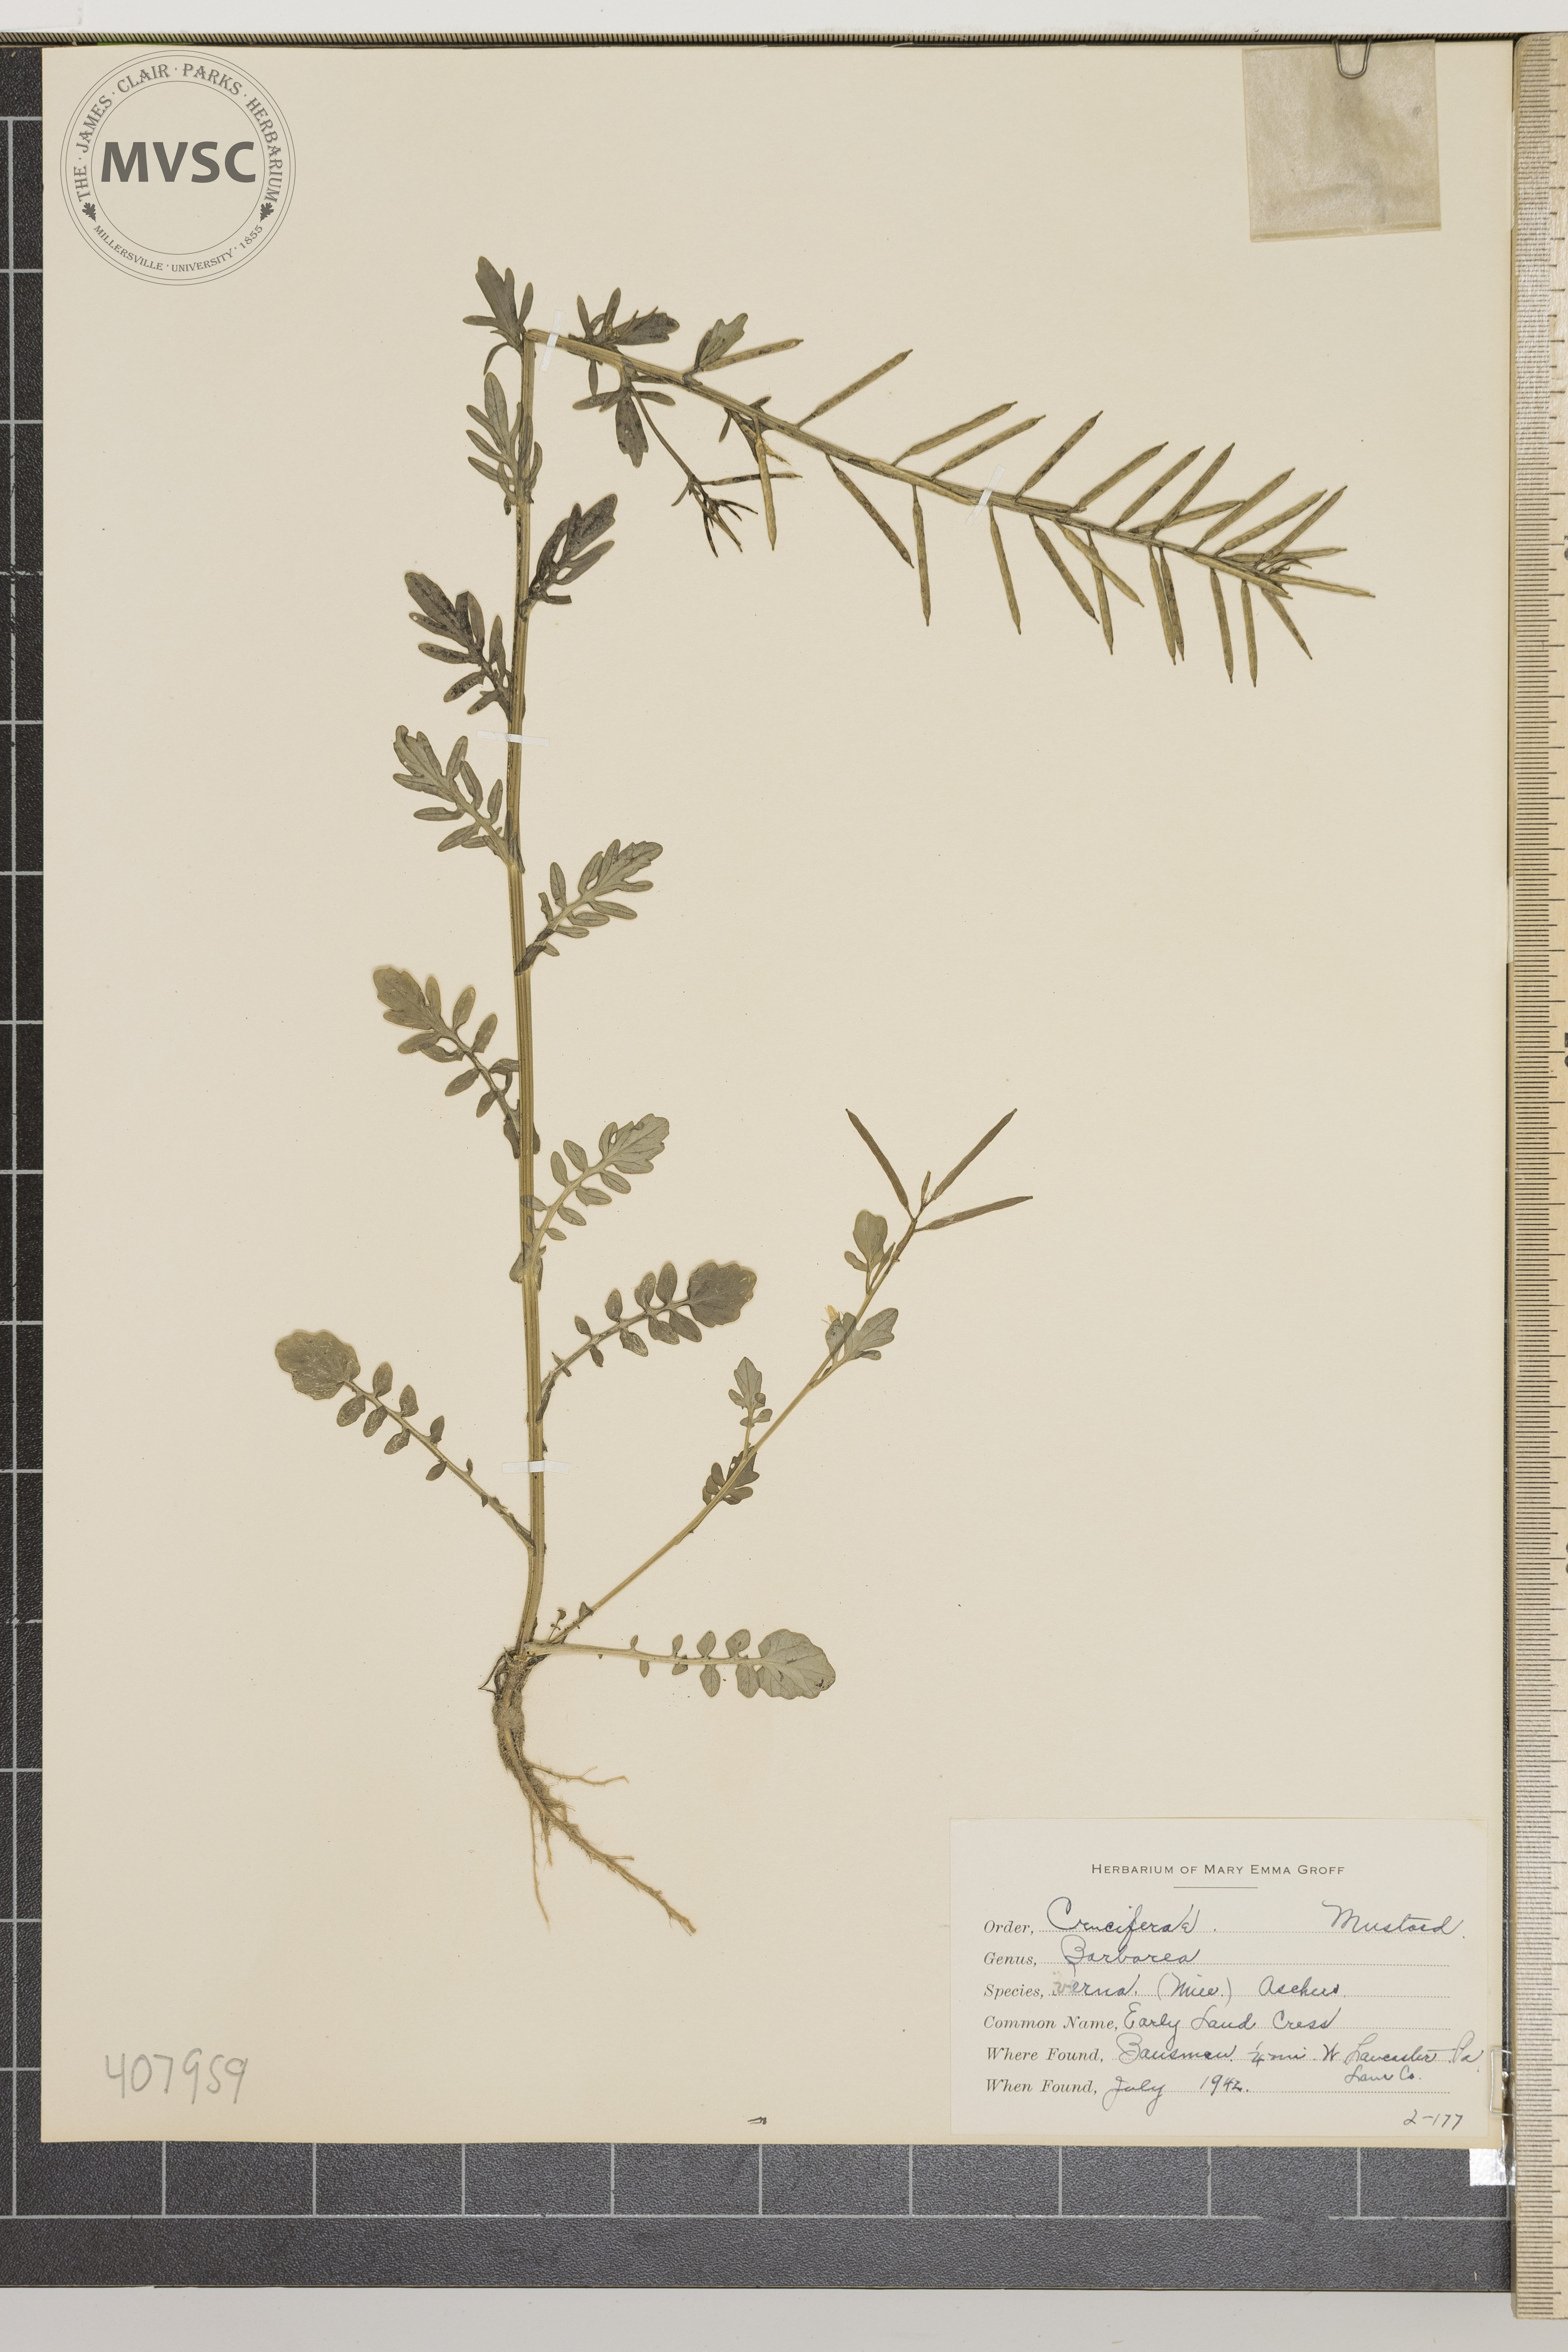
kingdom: Plantae
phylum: Tracheophyta
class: Magnoliopsida
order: Brassicales
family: Brassicaceae
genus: Barbarea
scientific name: Barbarea verna
